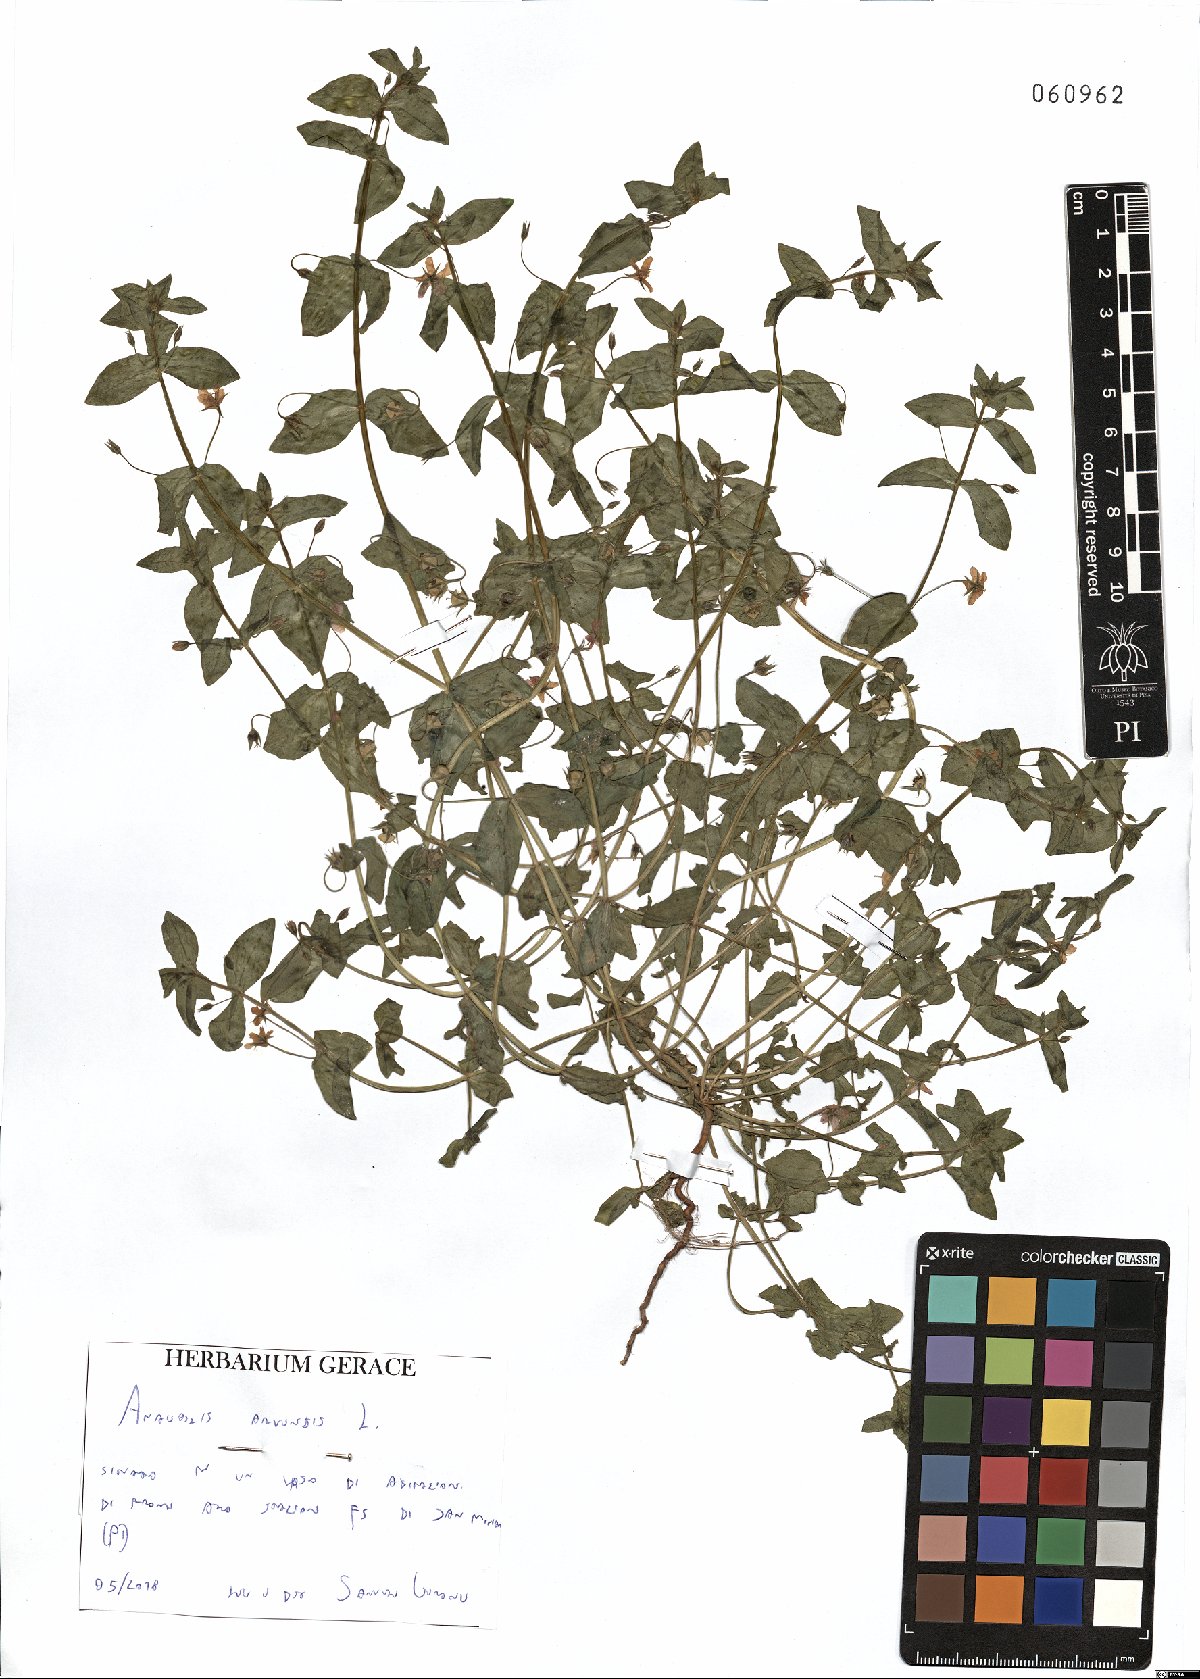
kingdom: Plantae
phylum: Tracheophyta
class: Magnoliopsida
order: Ericales
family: Primulaceae
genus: Lysimachia
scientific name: Lysimachia arvensis
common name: Scarlet pimpernel
